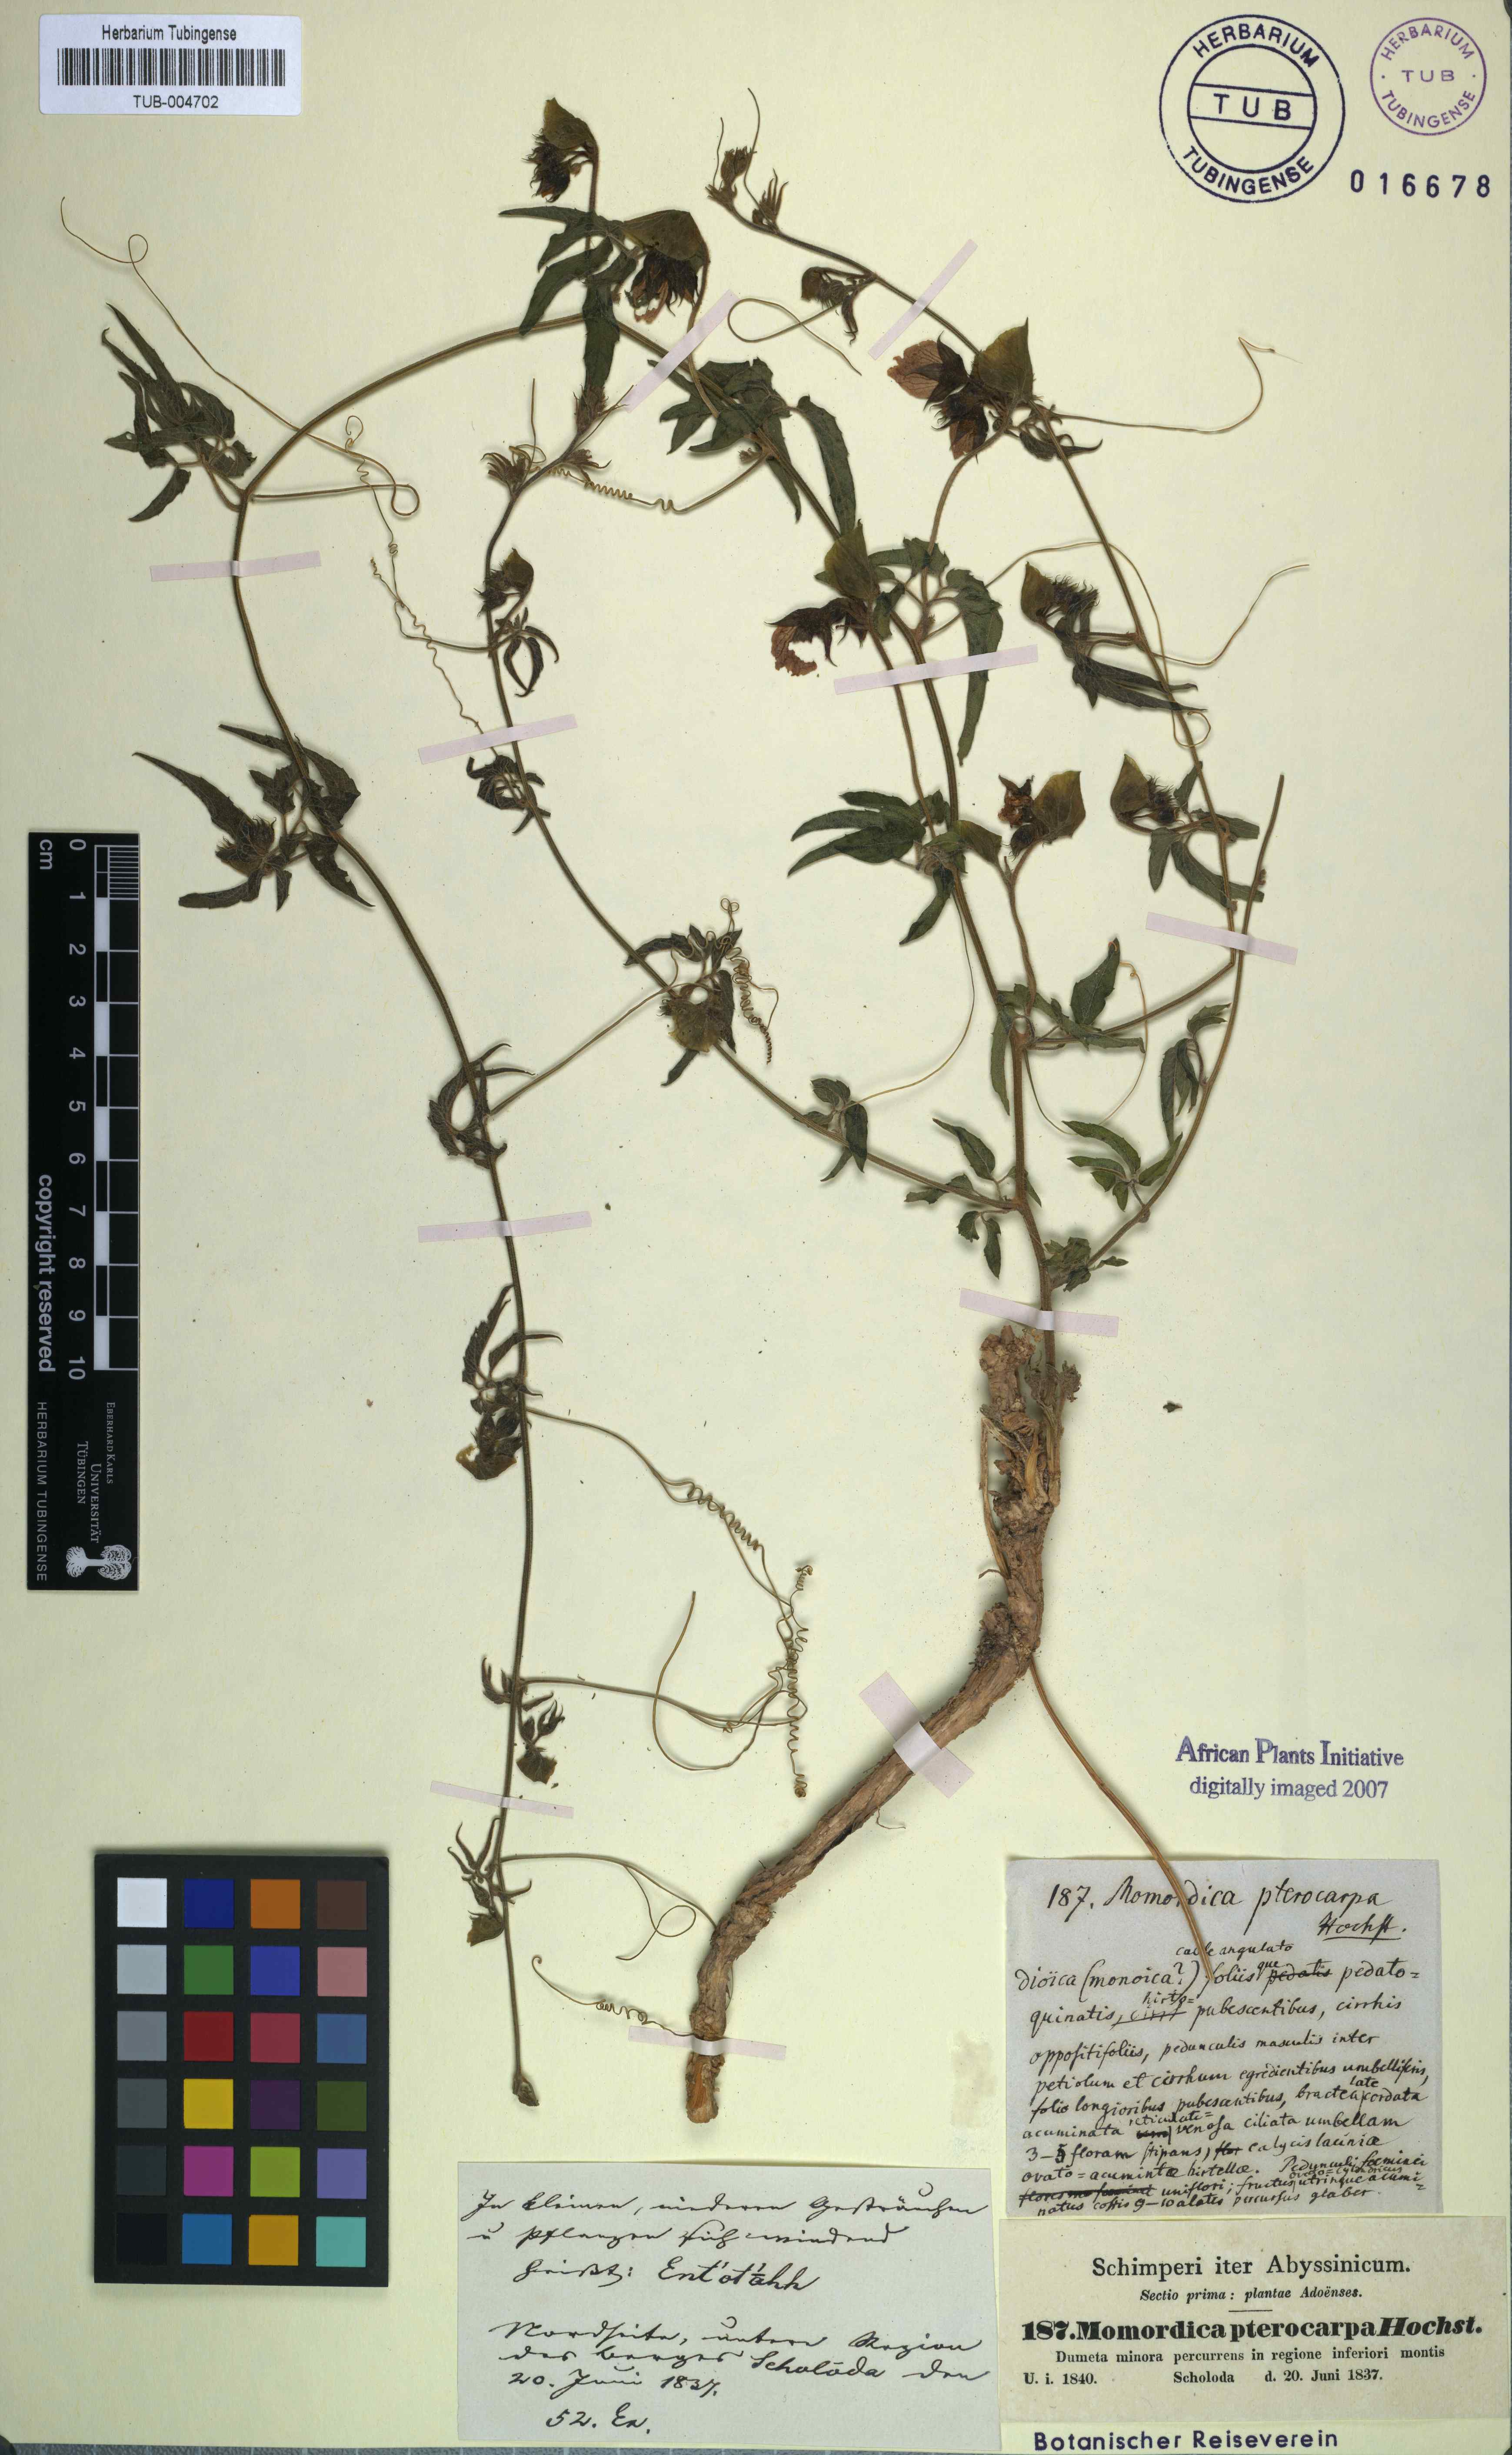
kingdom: Plantae
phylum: Tracheophyta
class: Magnoliopsida
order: Cucurbitales
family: Cucurbitaceae
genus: Momordica
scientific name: Momordica pterocarpa
